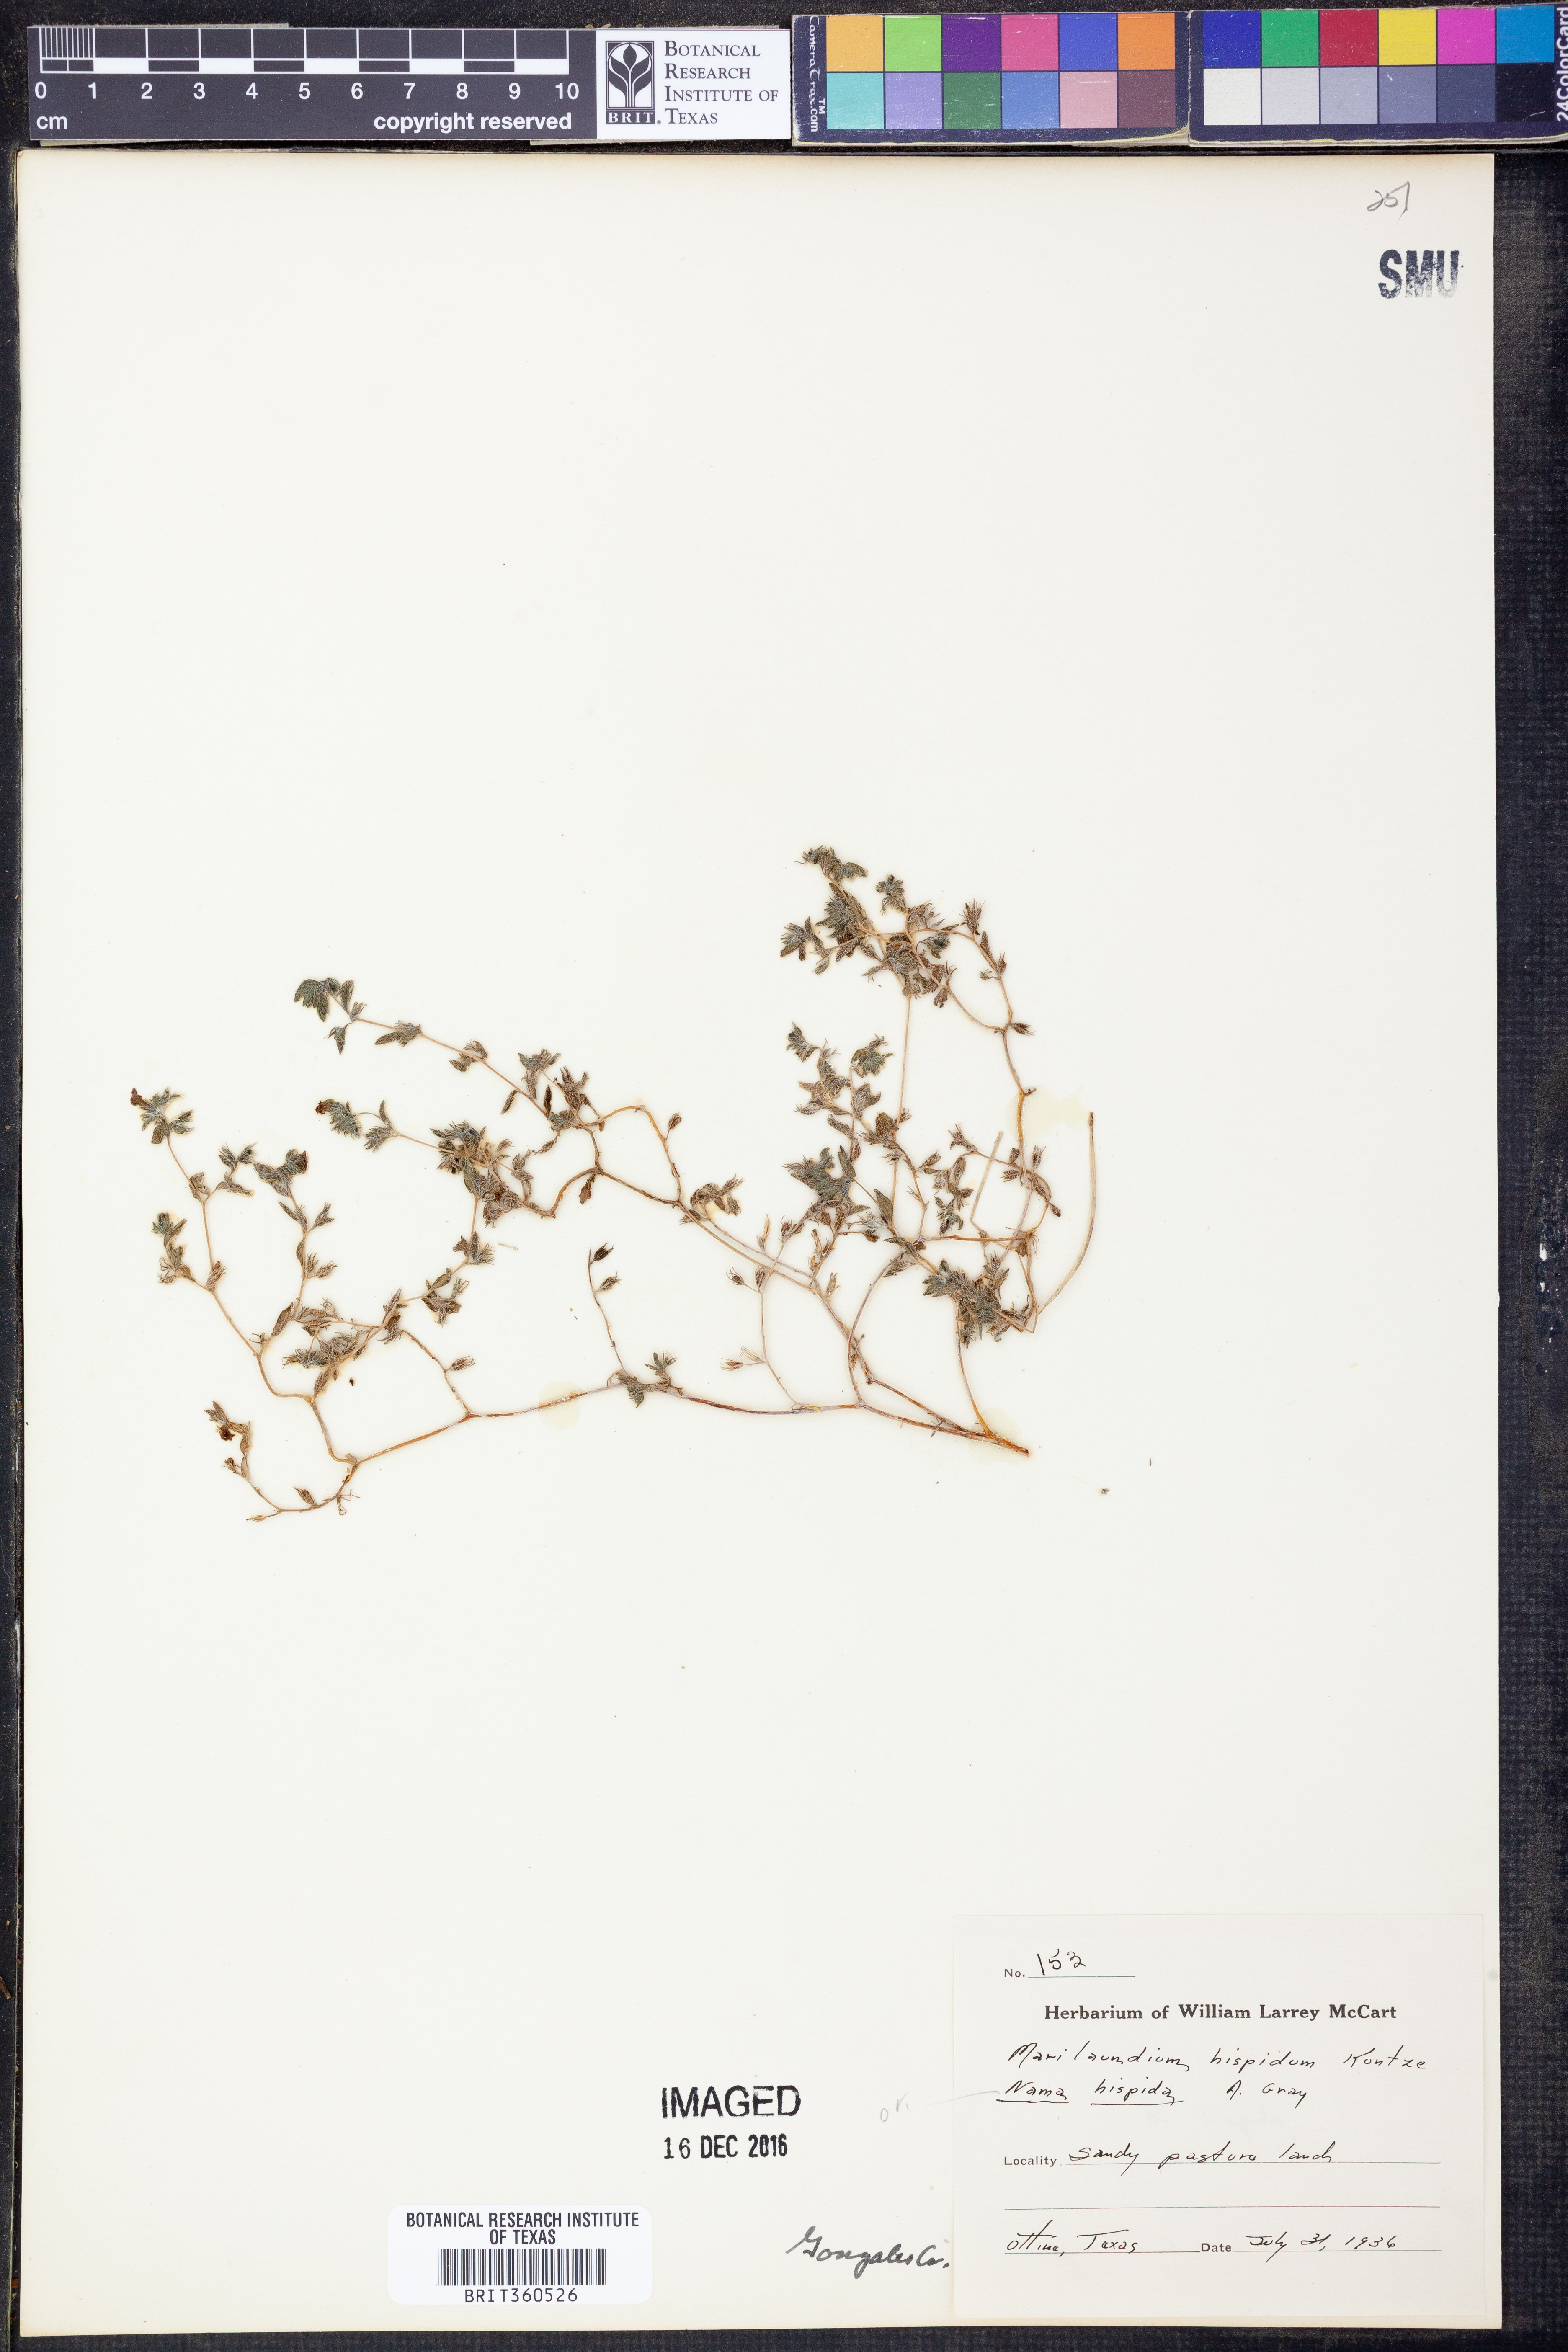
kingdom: Plantae
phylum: Tracheophyta
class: Magnoliopsida
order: Boraginales
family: Namaceae
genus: Nama
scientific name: Nama hispida
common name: Bristly nama
